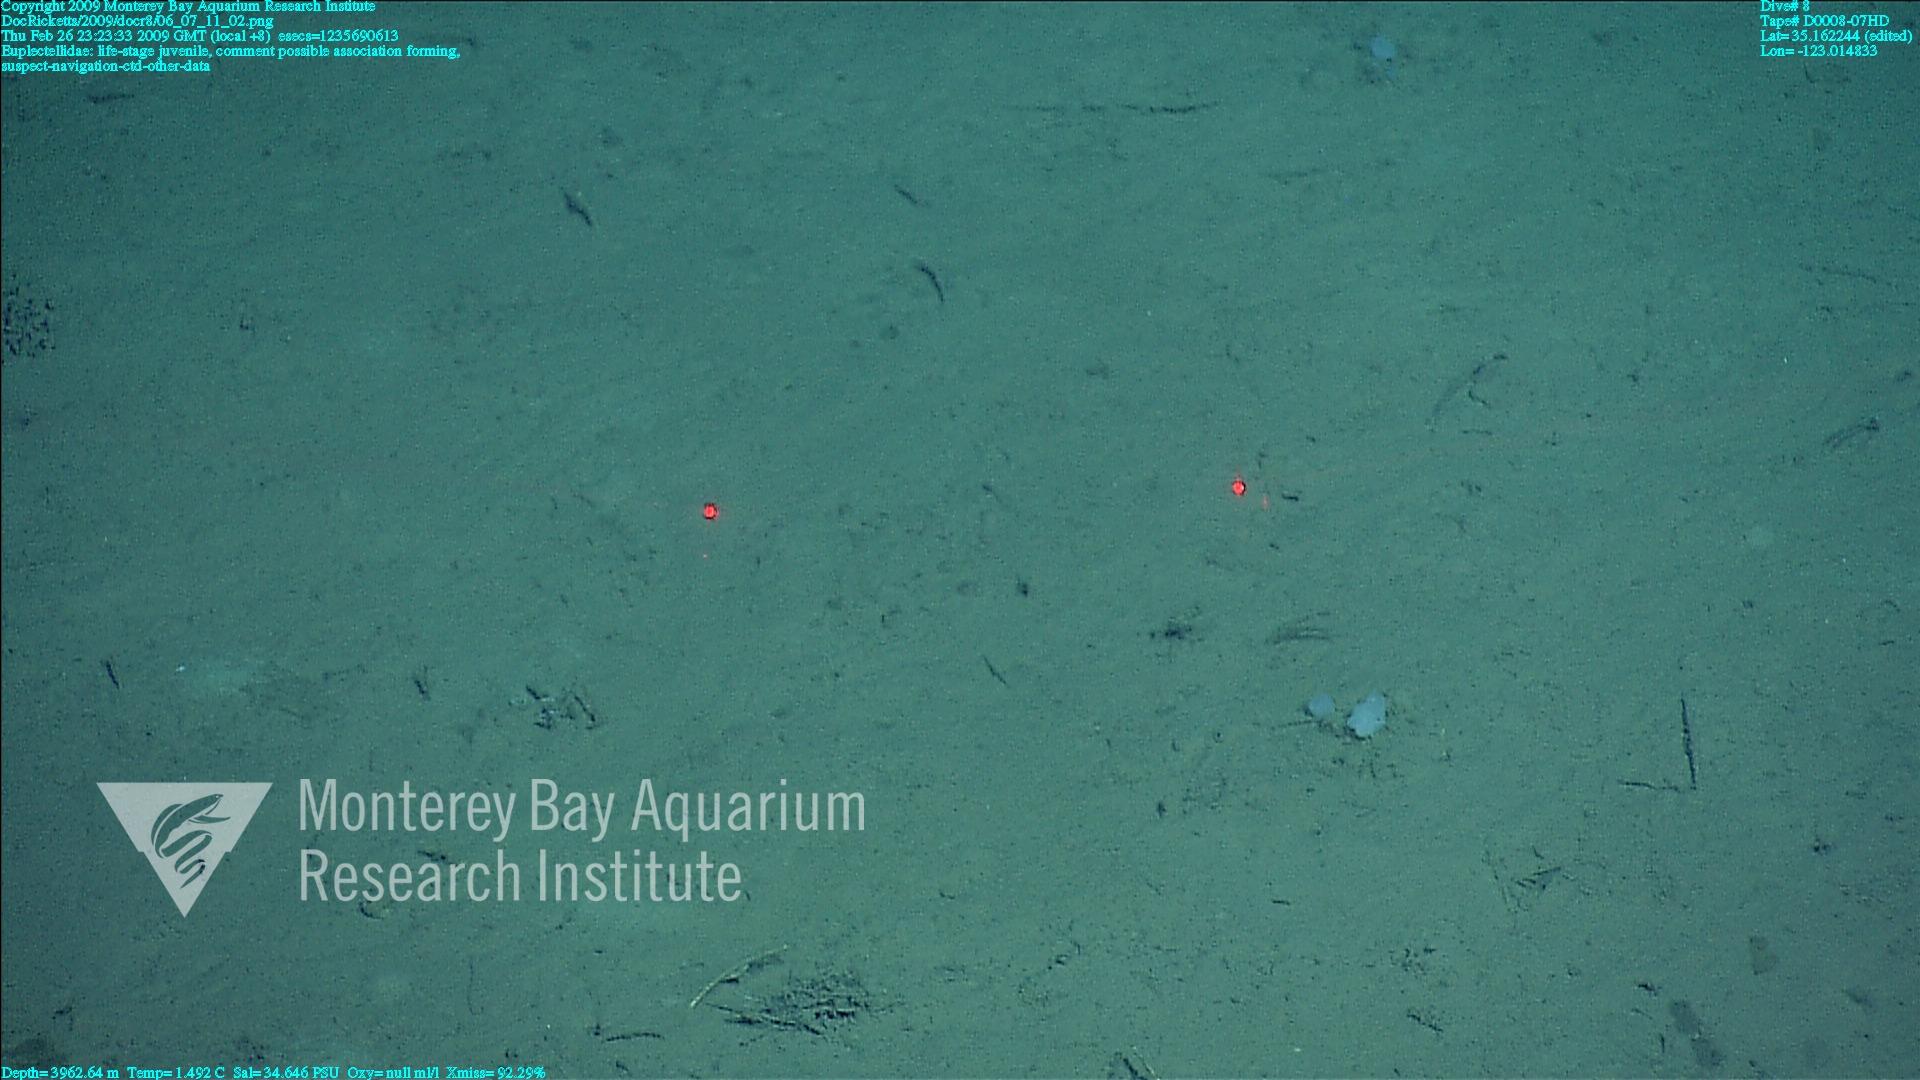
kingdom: Animalia
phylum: Porifera
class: Hexactinellida
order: Lyssacinosida
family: Euplectellidae
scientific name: Euplectellidae
